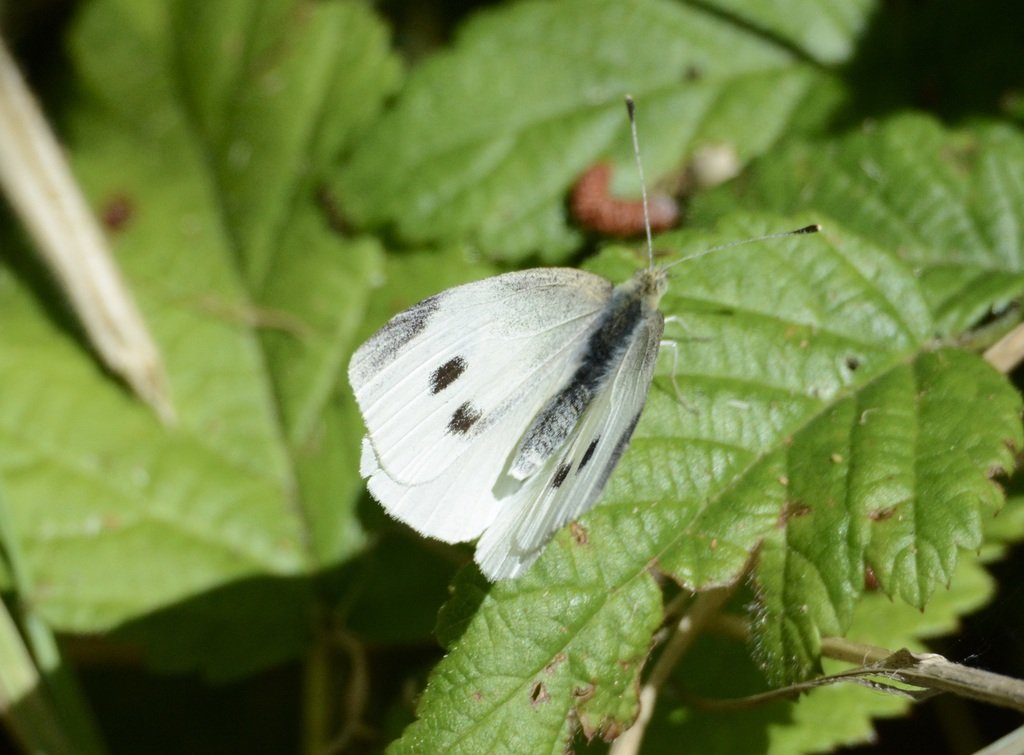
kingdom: Animalia
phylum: Arthropoda
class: Insecta
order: Lepidoptera
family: Pieridae
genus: Pieris
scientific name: Pieris rapae
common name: Cabbage White
